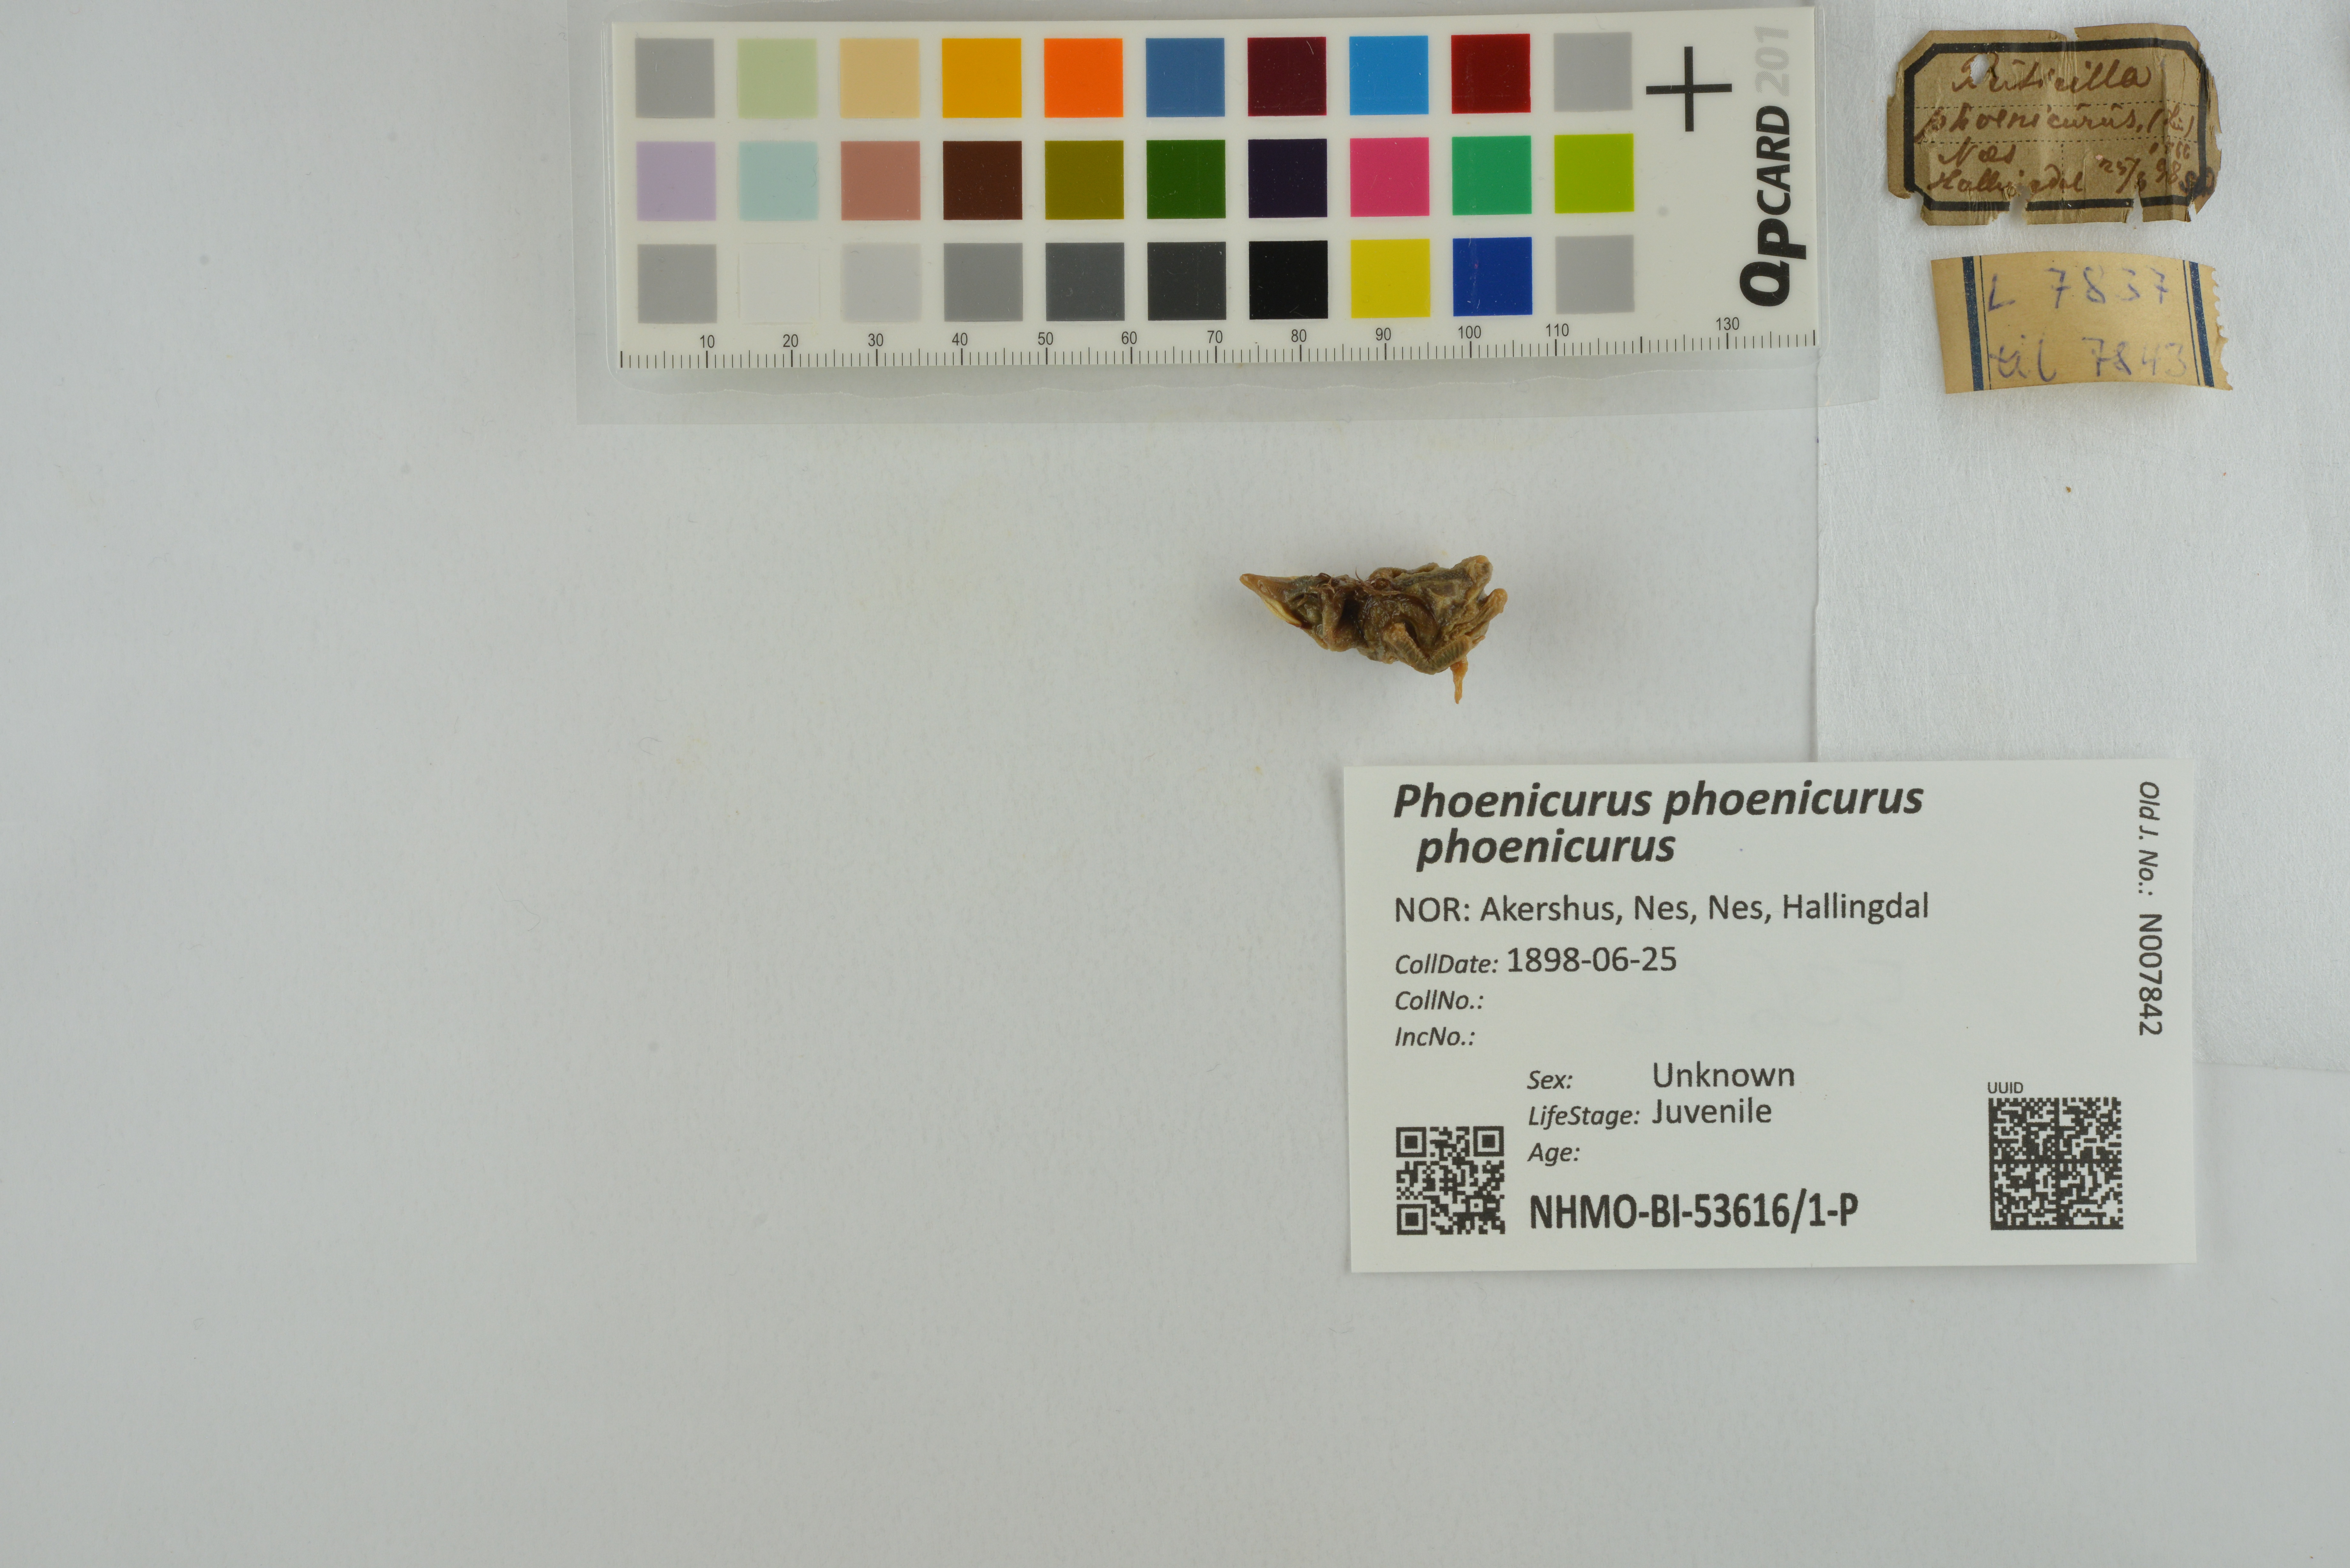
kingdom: Animalia
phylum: Chordata
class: Aves
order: Passeriformes
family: Muscicapidae
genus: Phoenicurus
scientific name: Phoenicurus phoenicurus
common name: Common redstart
